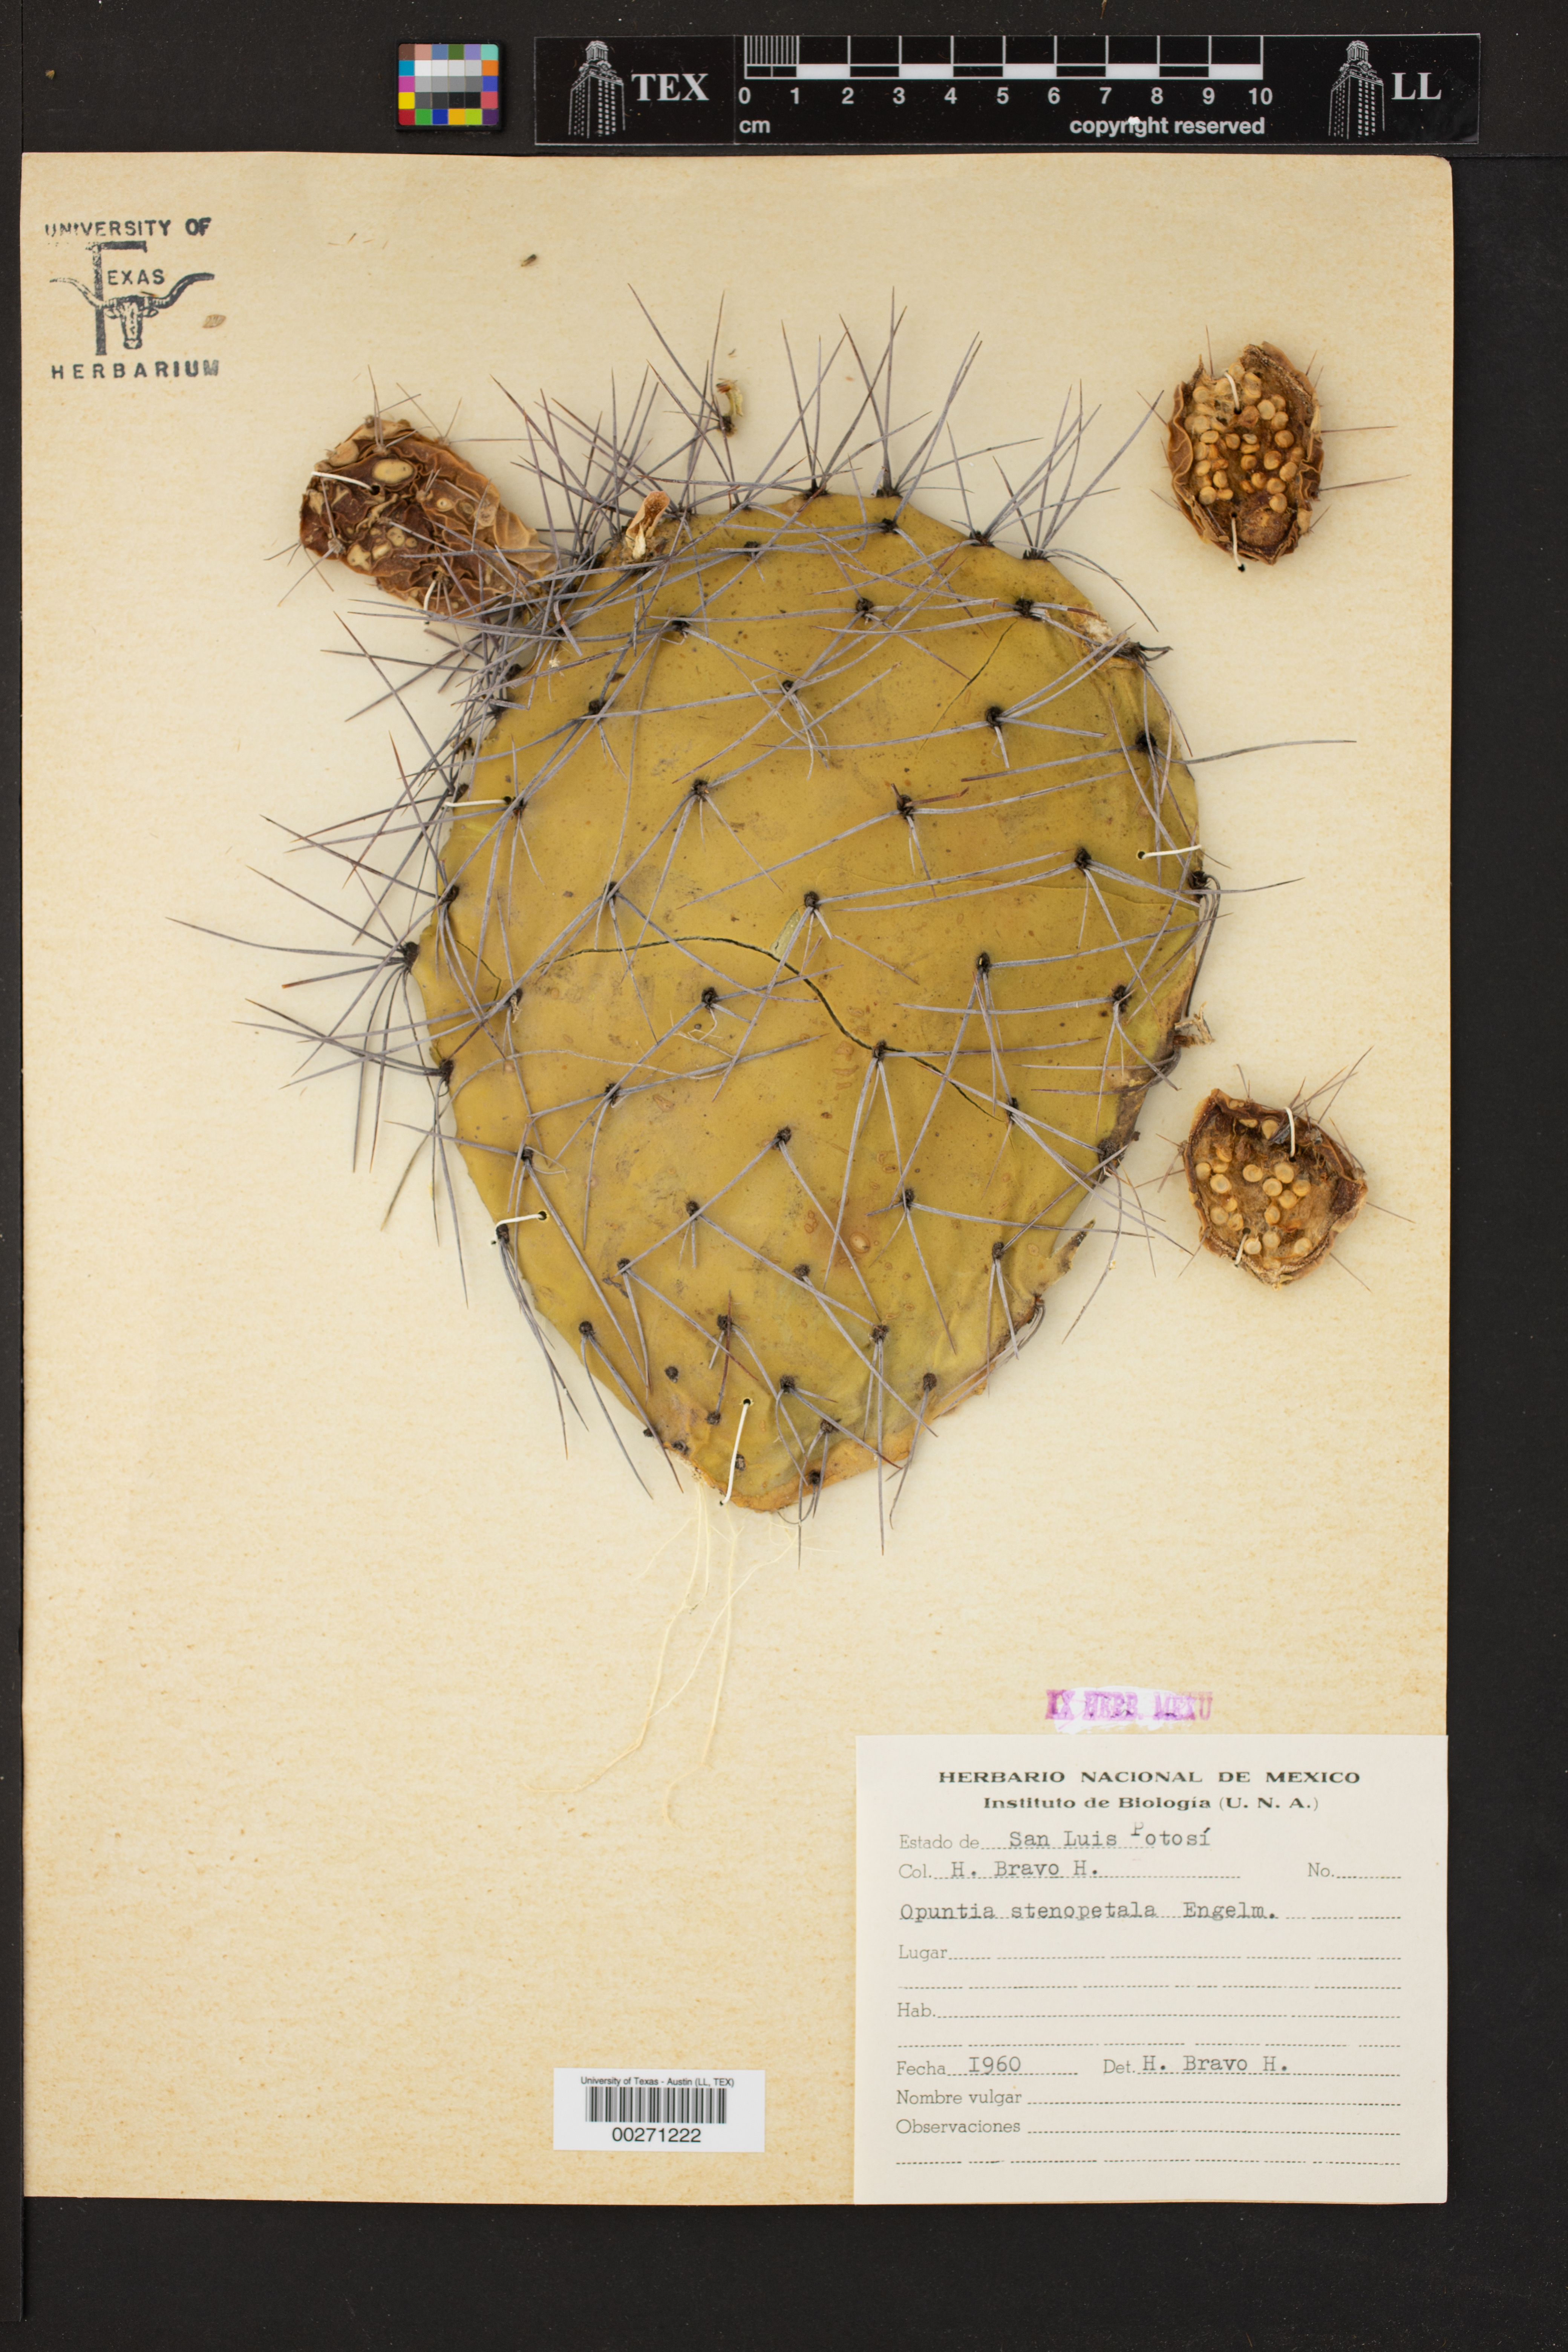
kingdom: Plantae
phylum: Tracheophyta
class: Magnoliopsida
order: Caryophyllales
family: Cactaceae
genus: Opuntia
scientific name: Opuntia stenopetala
